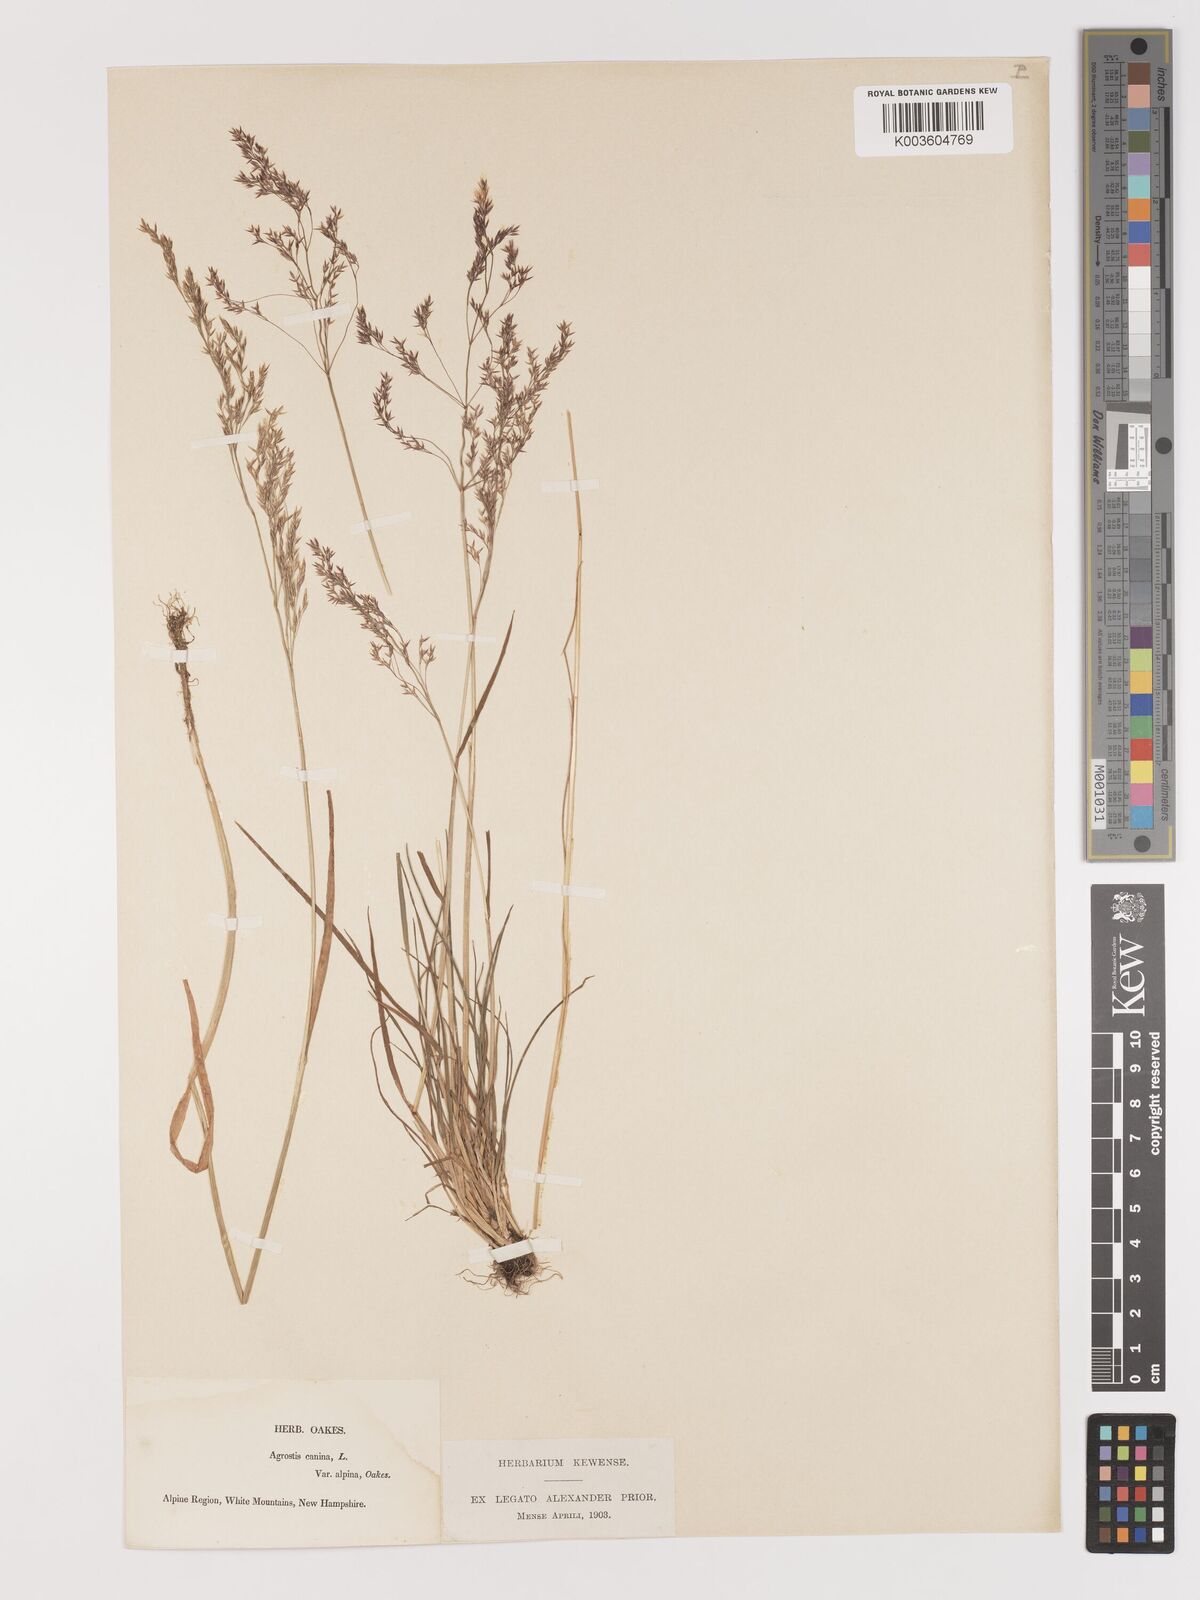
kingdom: Plantae
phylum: Tracheophyta
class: Liliopsida
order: Poales
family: Poaceae
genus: Agrostis
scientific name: Agrostis canina
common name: Velvet bent
